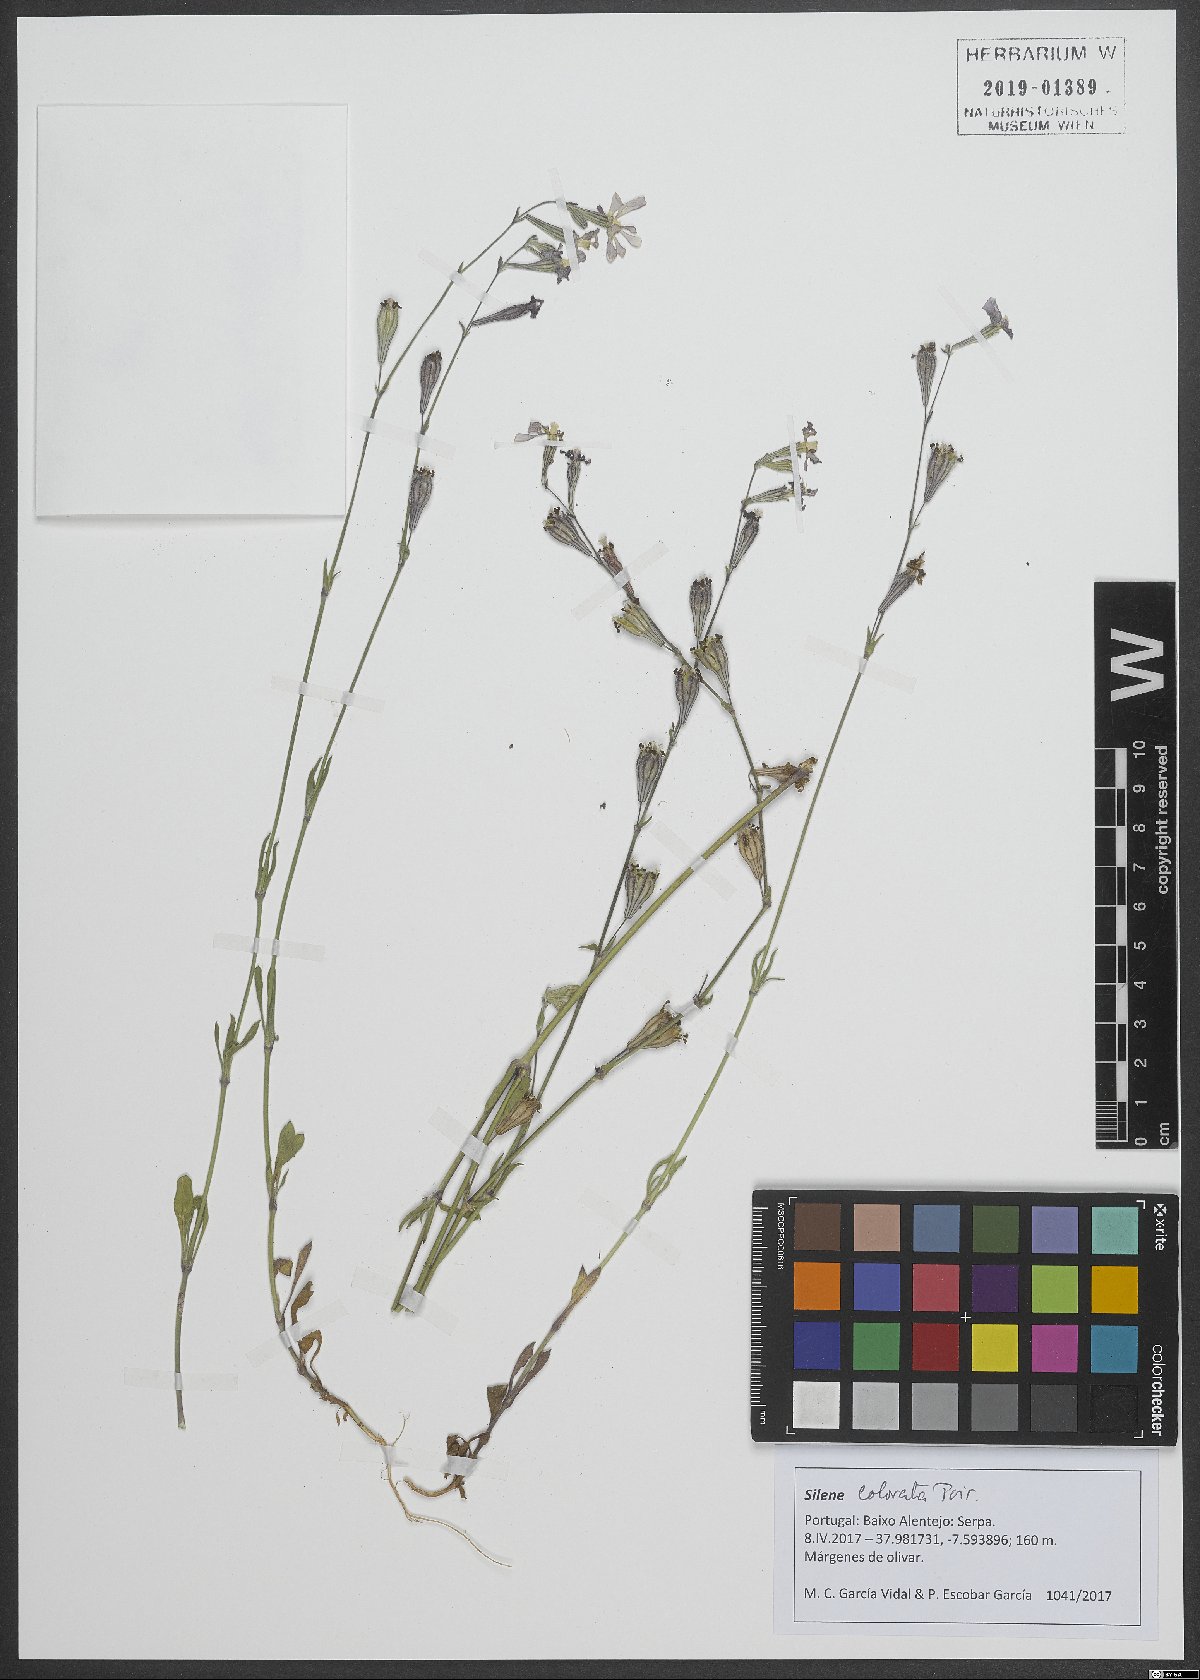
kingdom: Plantae
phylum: Tracheophyta
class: Magnoliopsida
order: Caryophyllales
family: Caryophyllaceae
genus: Silene
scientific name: Silene colorata
